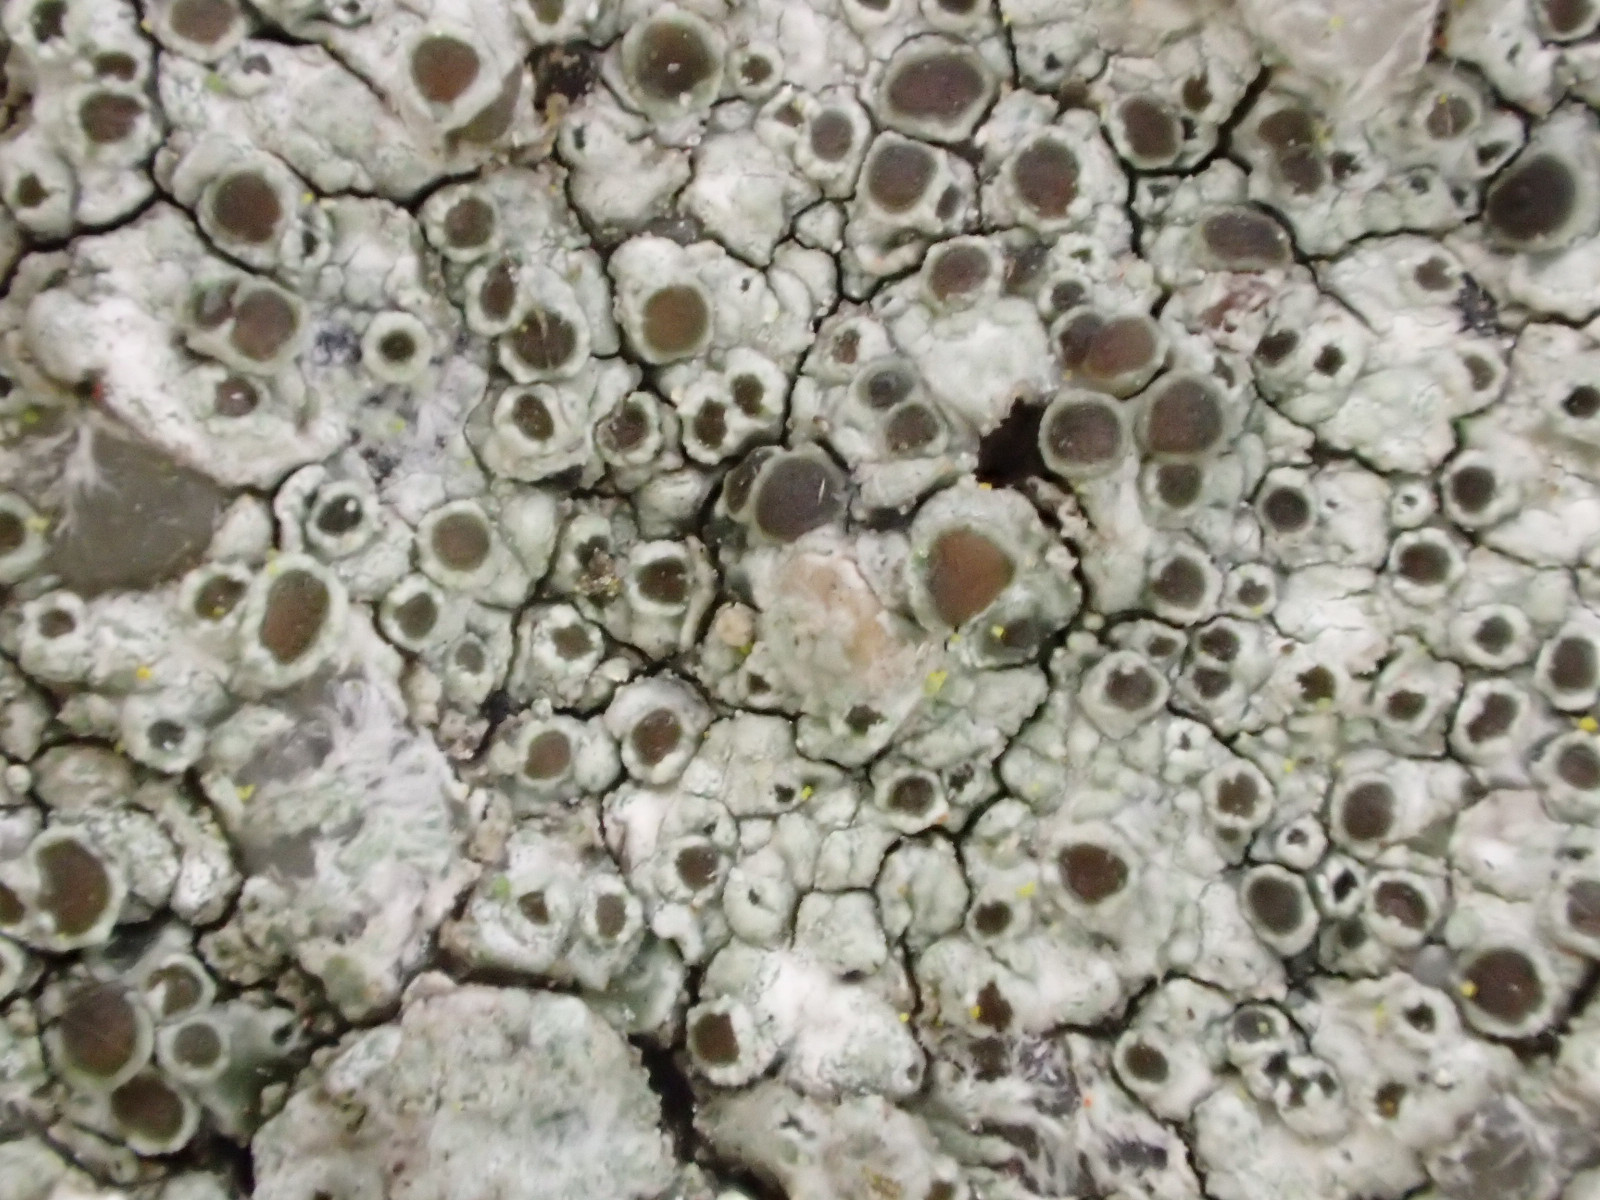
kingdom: Fungi
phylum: Ascomycota
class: Lecanoromycetes
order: Lecanorales
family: Lecanoraceae
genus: Lecanora
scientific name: Lecanora campestris
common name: mur-kantskivelav
